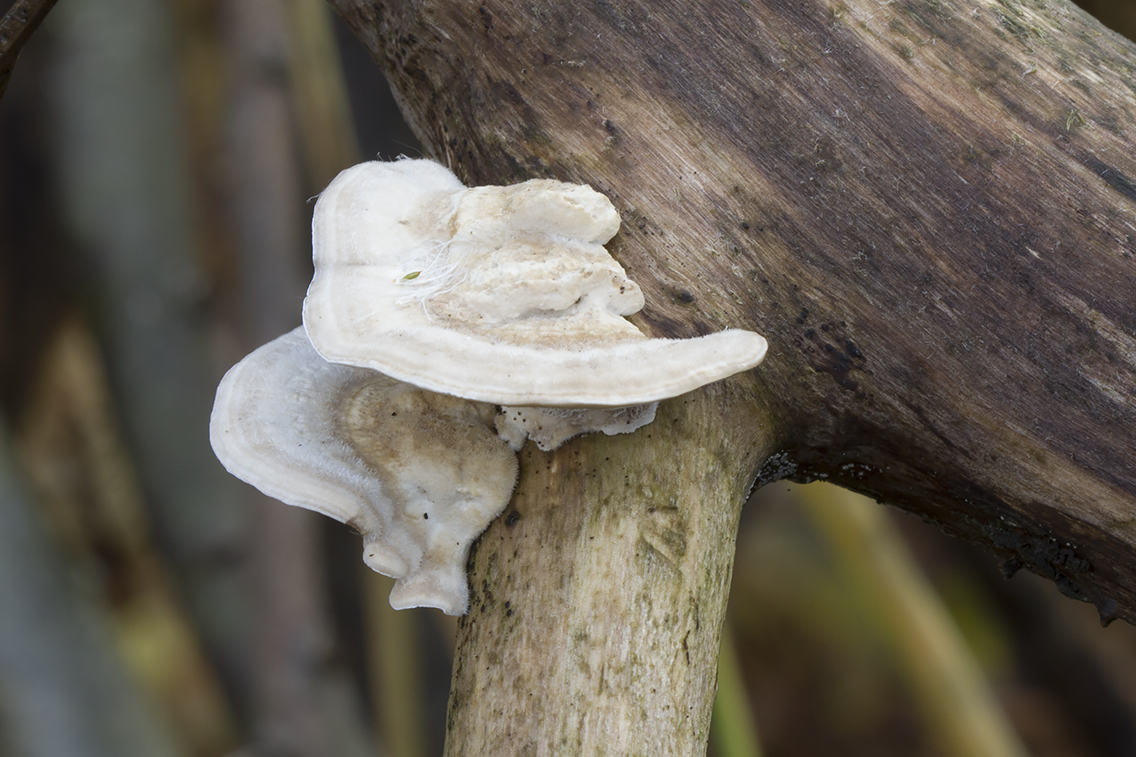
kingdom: Fungi
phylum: Basidiomycota
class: Agaricomycetes
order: Polyporales
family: Polyporaceae
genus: Trametes
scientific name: Trametes hirsuta
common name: håret læderporesvamp
